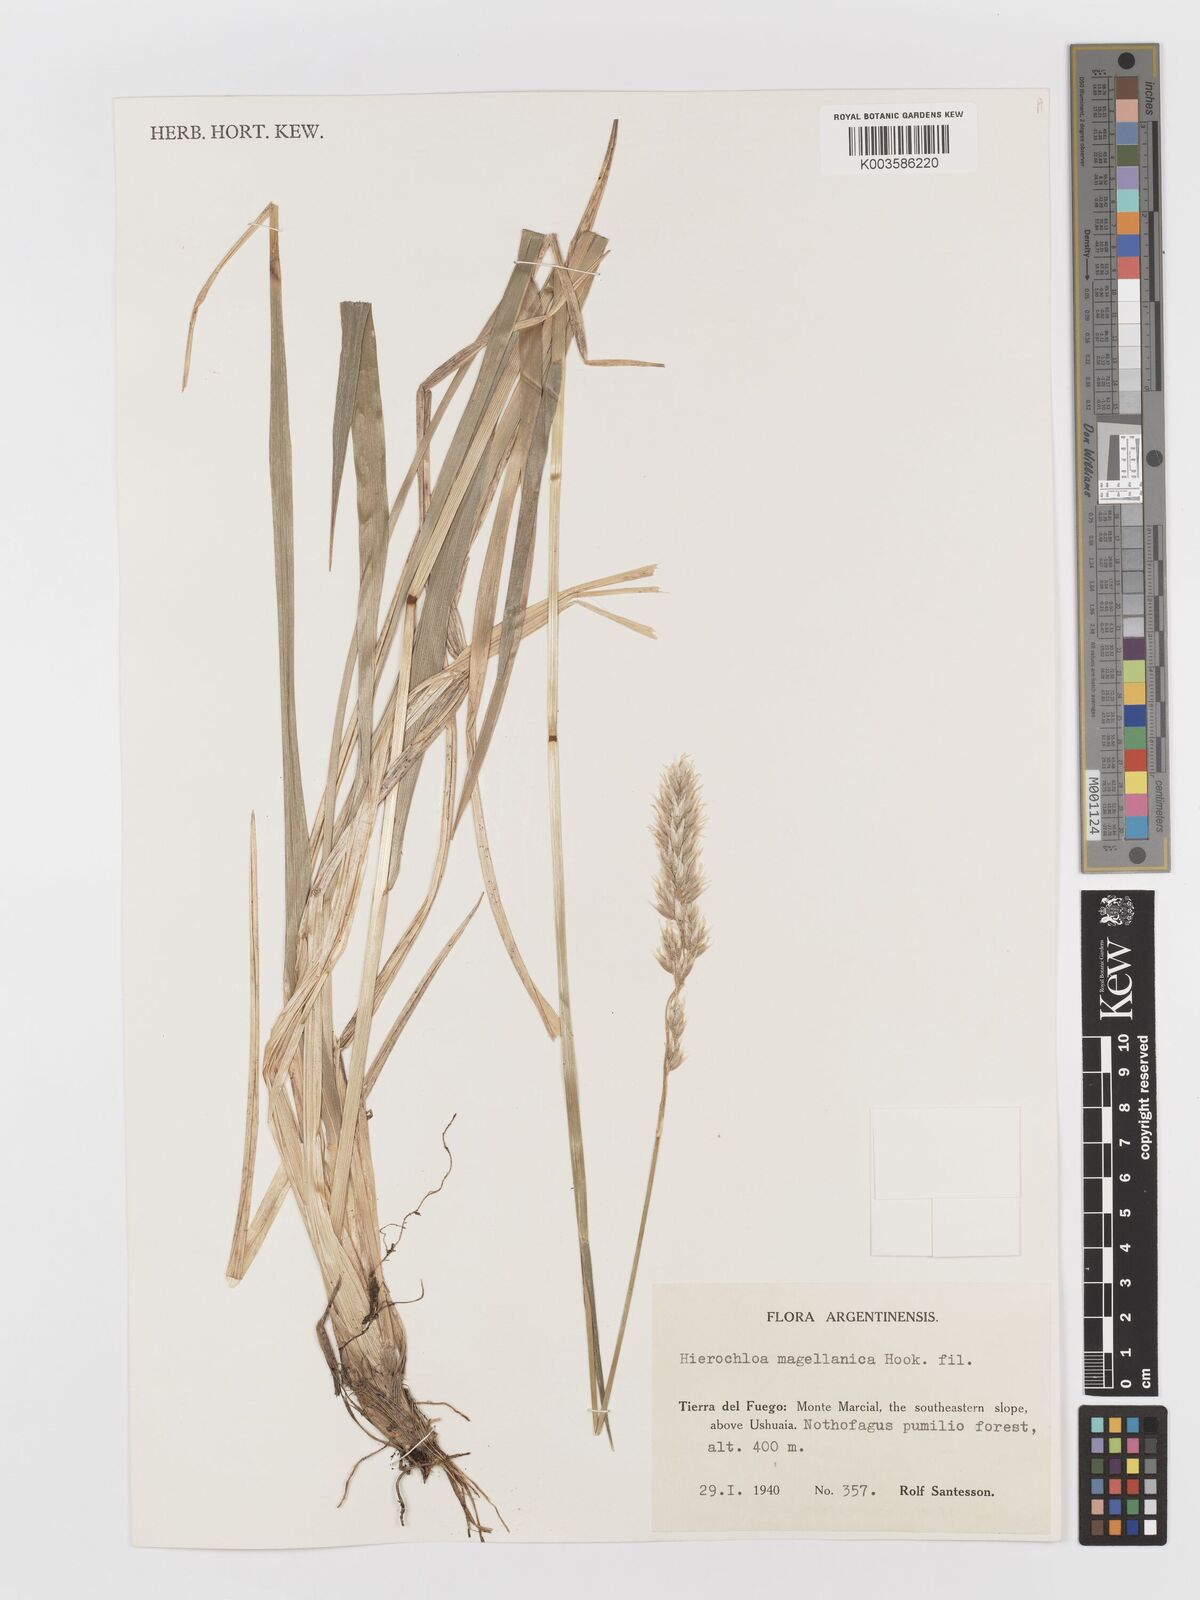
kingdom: Plantae
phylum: Tracheophyta
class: Liliopsida
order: Poales
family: Poaceae
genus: Anthoxanthum
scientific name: Anthoxanthum redolens
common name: Sweet holy grass
